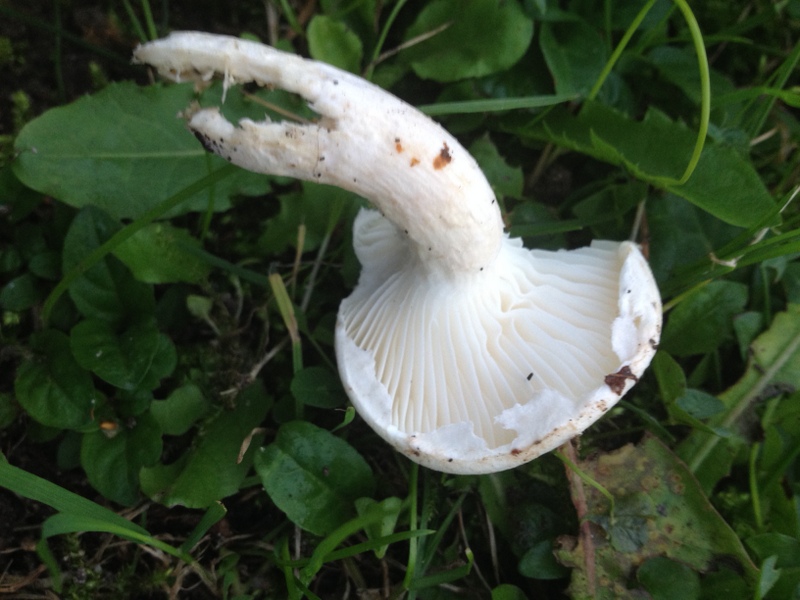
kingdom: Fungi
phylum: Basidiomycota
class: Agaricomycetes
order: Agaricales
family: Pleurotaceae
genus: Pleurotus
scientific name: Pleurotus dryinus
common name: korkagtig østershat
